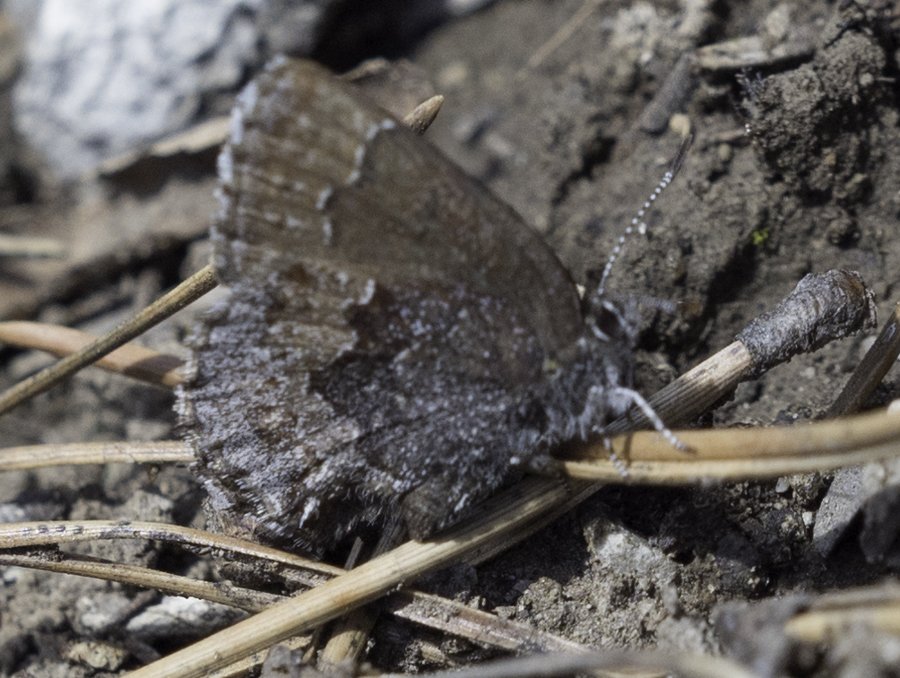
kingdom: Animalia
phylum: Arthropoda
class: Insecta
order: Lepidoptera
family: Lycaenidae
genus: Callophrys
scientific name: Callophrys polios
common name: Hoary Elfin
